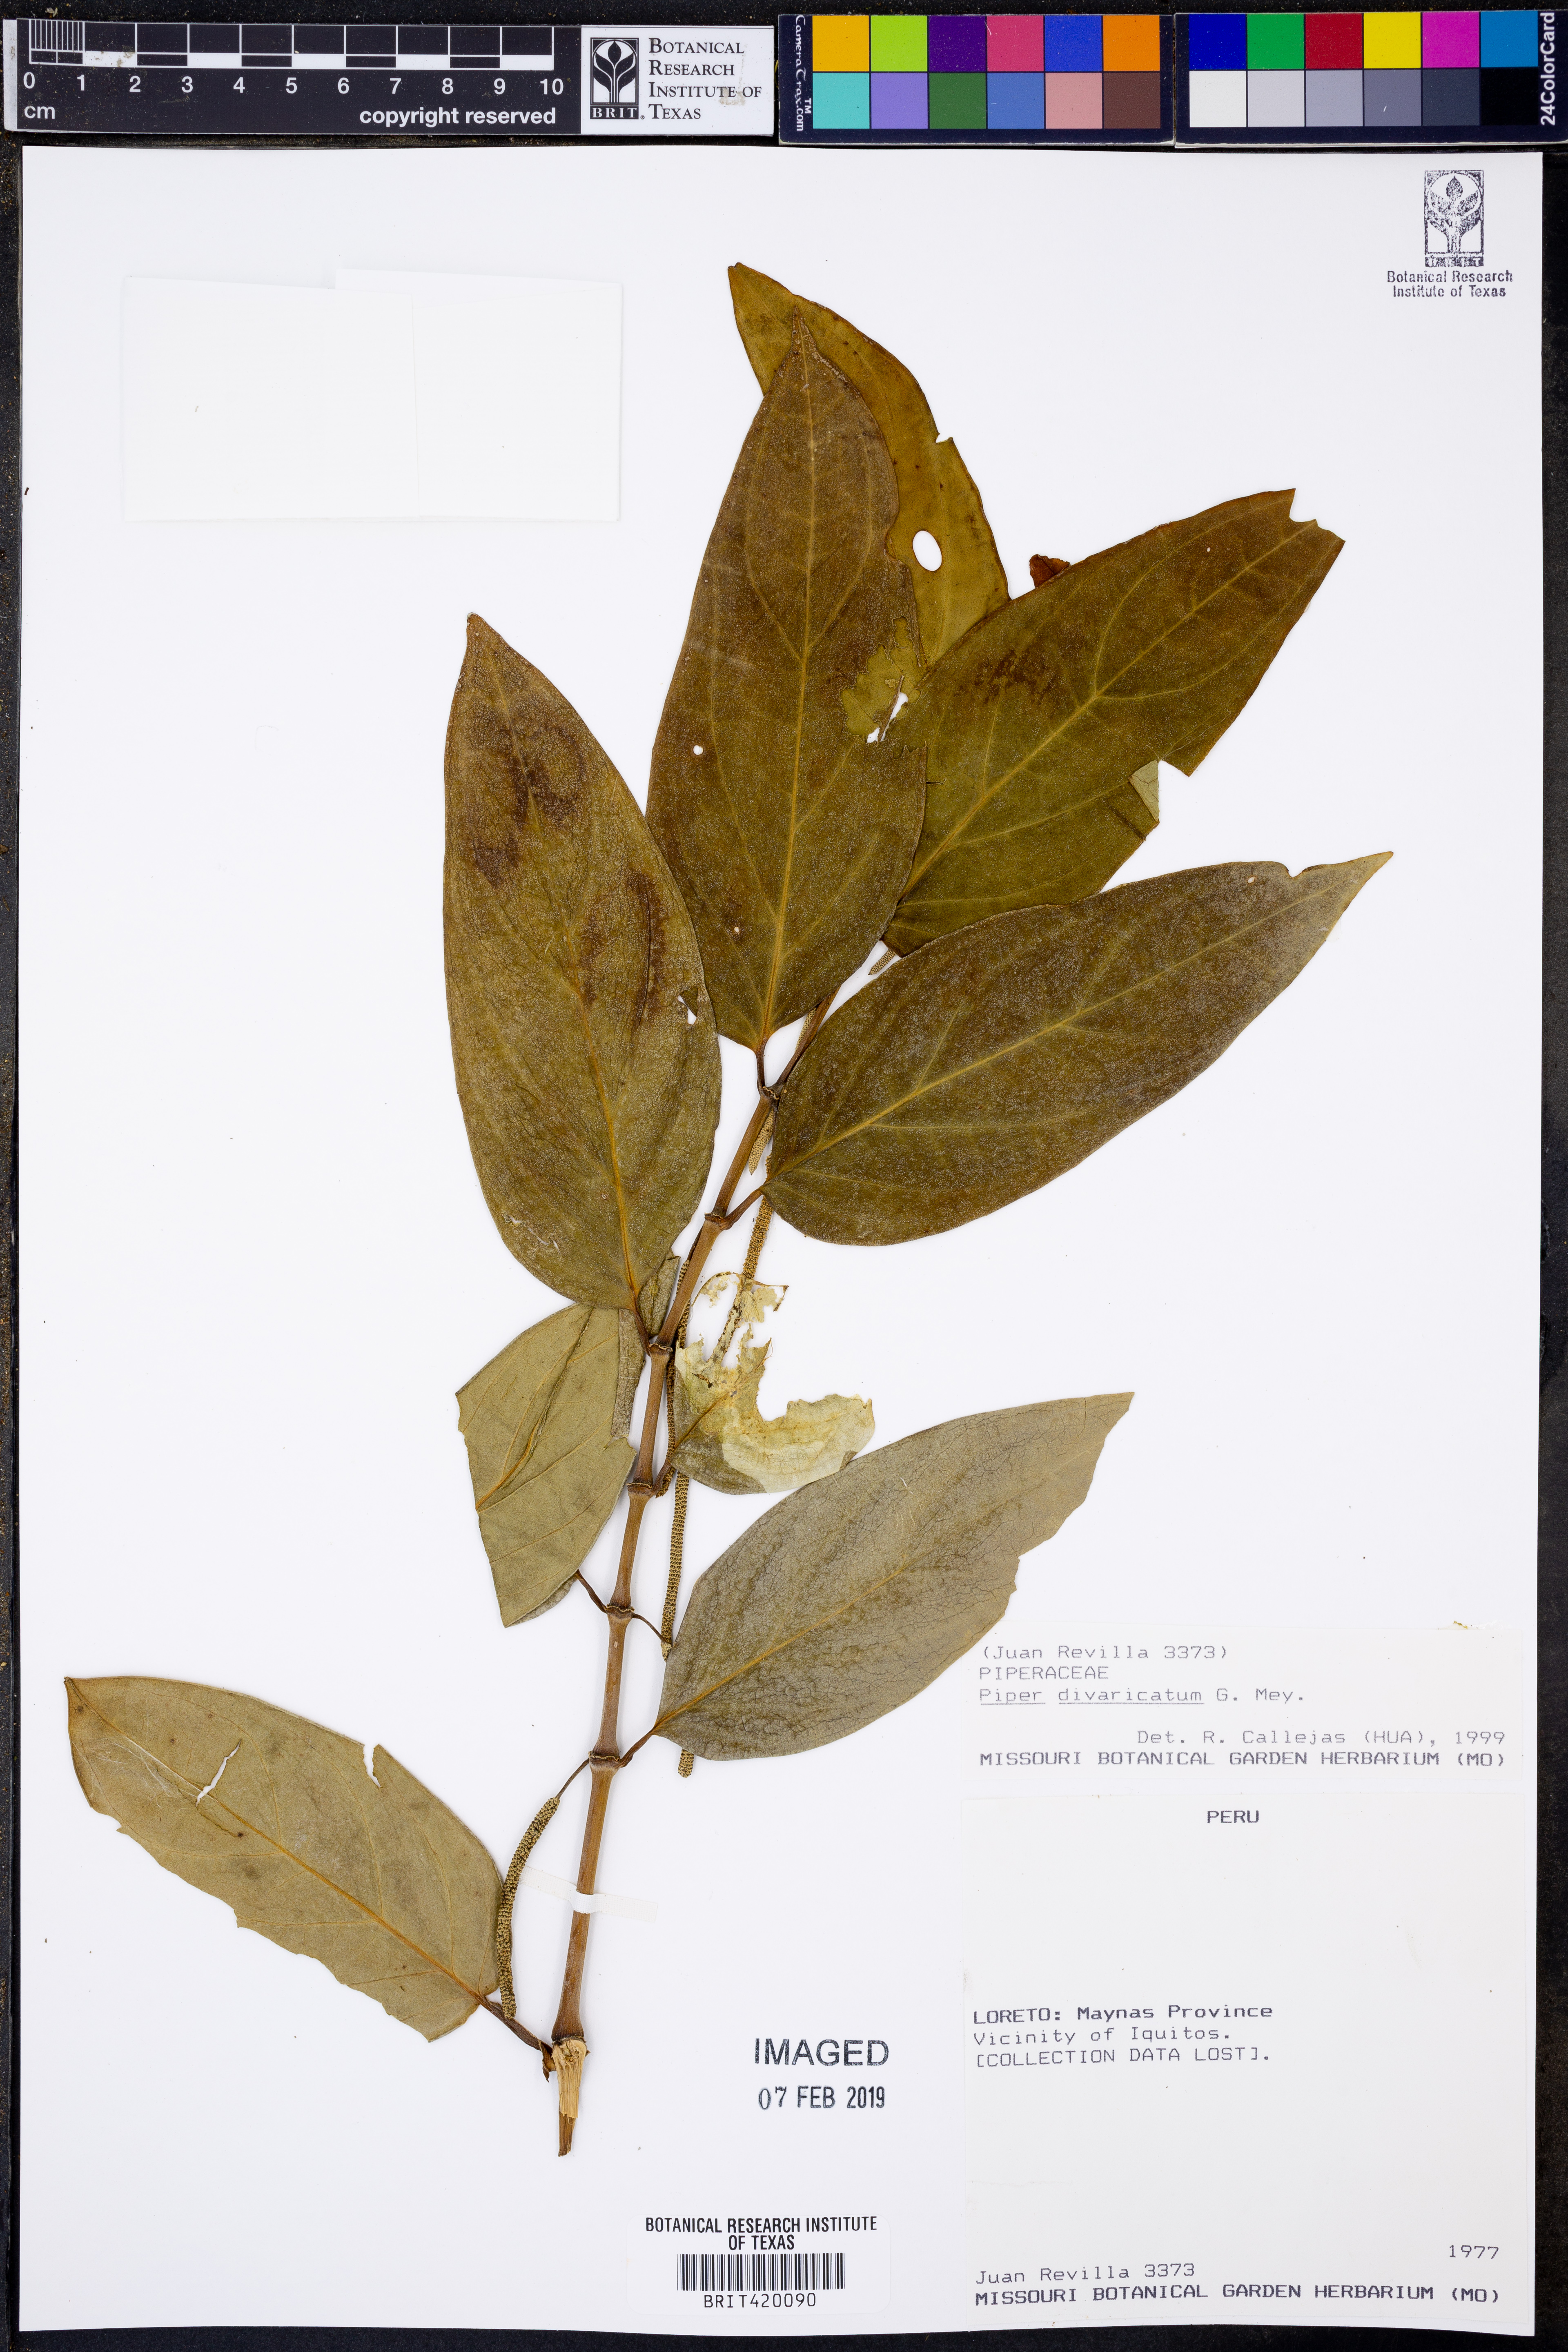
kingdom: Plantae
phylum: Tracheophyta
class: Magnoliopsida
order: Piperales
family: Piperaceae
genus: Piper
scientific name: Piper divaricatum
